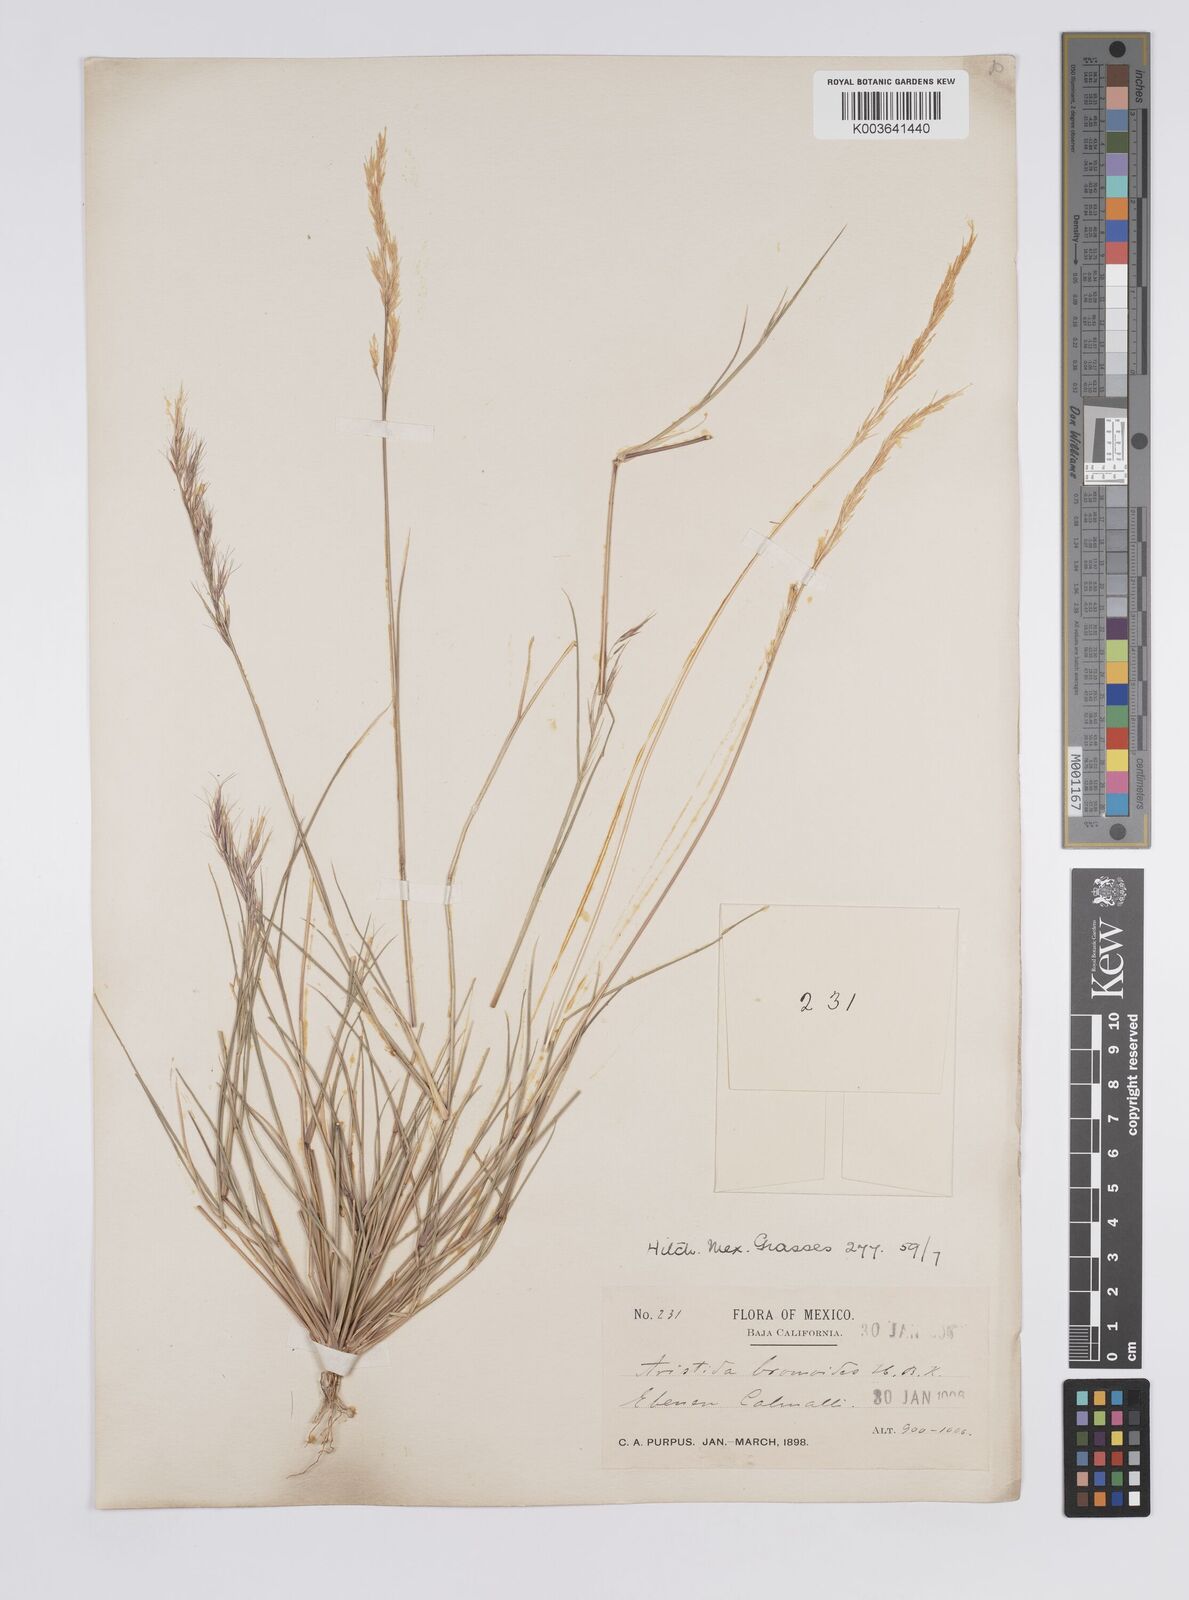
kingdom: Plantae
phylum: Tracheophyta
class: Liliopsida
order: Poales
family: Poaceae
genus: Aristida
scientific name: Aristida adscensionis
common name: Sixweeks threeawn
